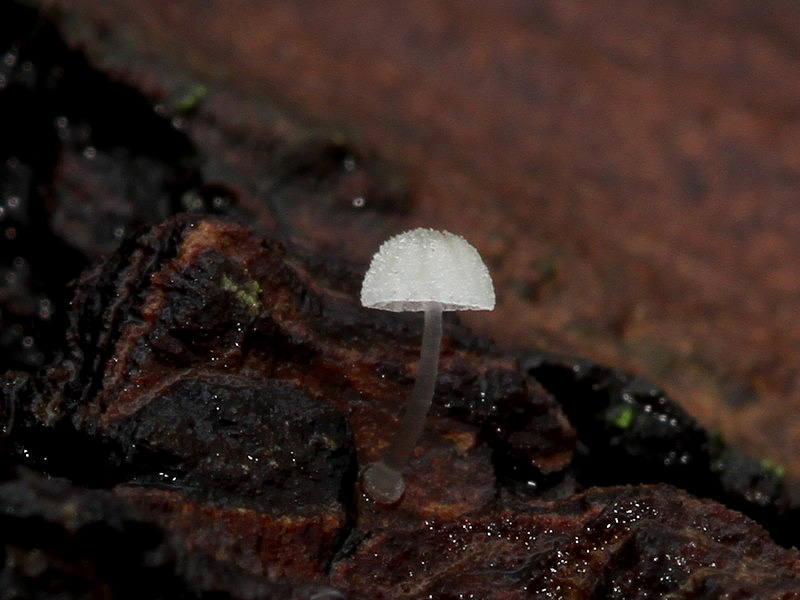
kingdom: Fungi
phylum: Basidiomycota
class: Agaricomycetes
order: Agaricales
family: Mycenaceae
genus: Mycena
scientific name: Mycena tenerrima
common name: pudret huesvamp
